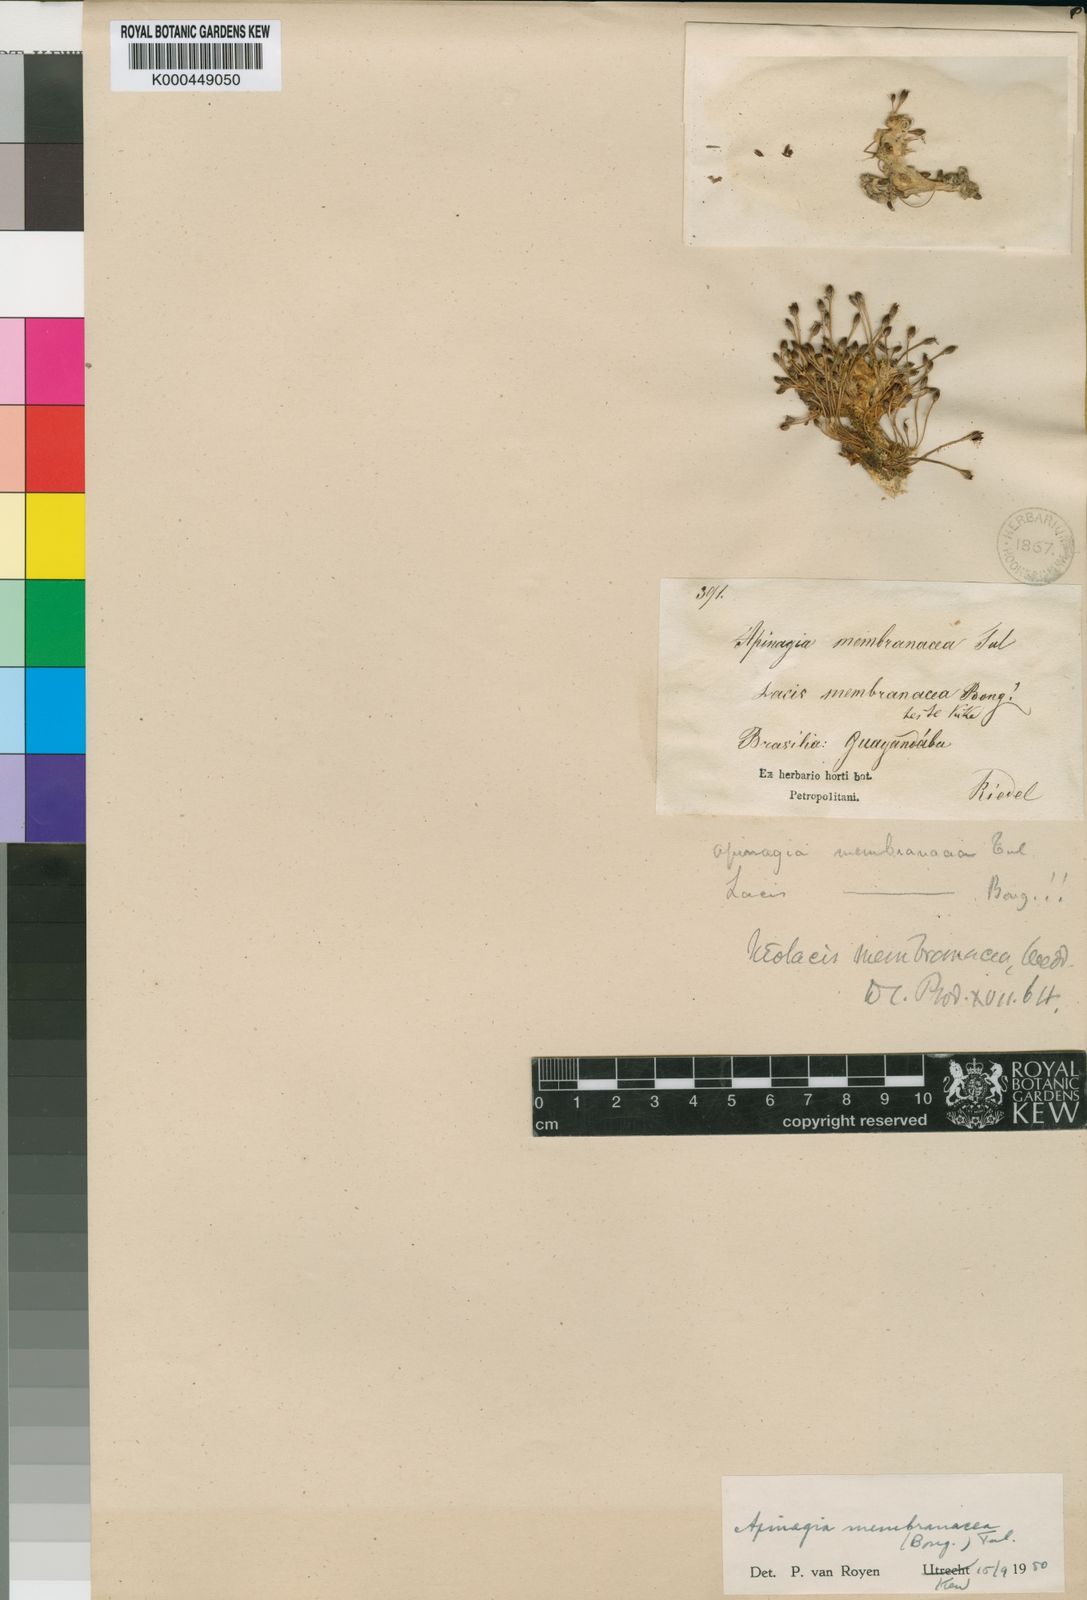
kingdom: Plantae
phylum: Tracheophyta
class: Magnoliopsida
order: Malpighiales
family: Podostemaceae
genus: Apinagia
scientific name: Apinagia membranacea
